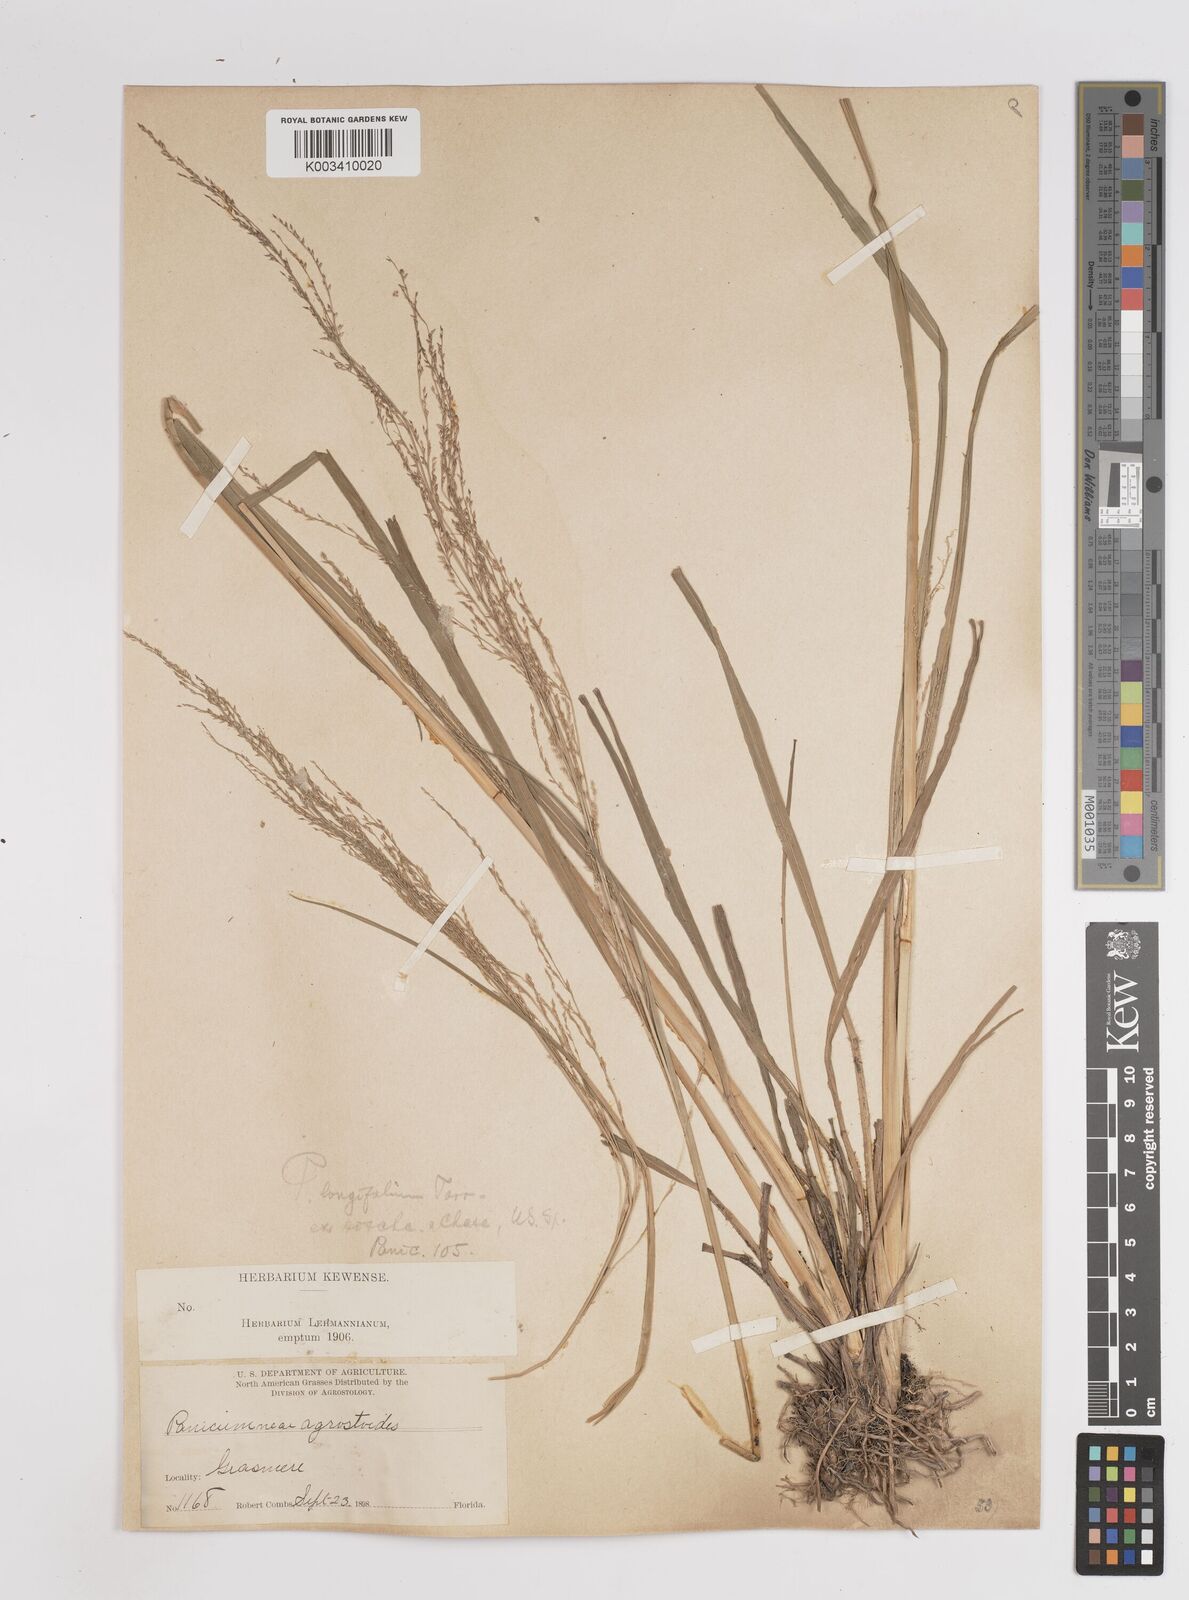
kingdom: Plantae
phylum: Tracheophyta
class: Liliopsida
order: Poales
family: Poaceae
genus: Coleataenia
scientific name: Coleataenia longifolia
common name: Long-leaved panicgrass
